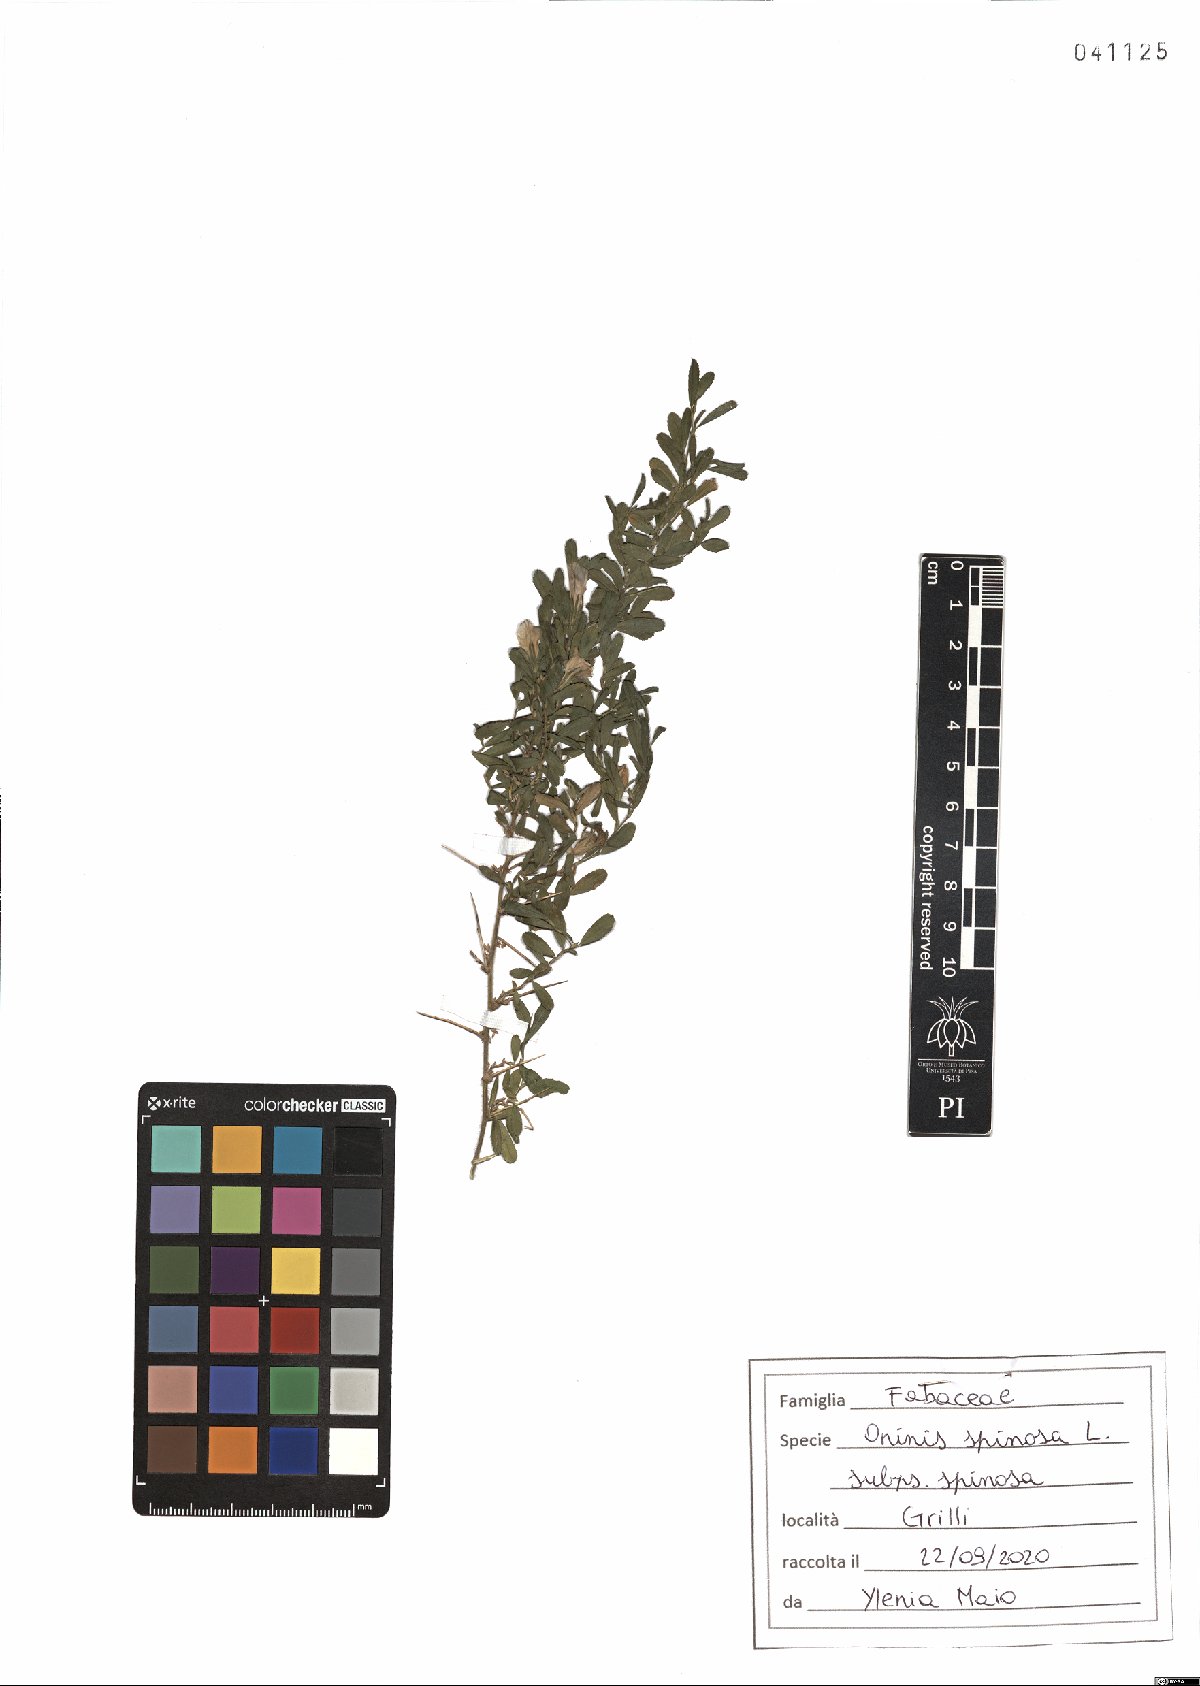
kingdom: Plantae
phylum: Tracheophyta
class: Magnoliopsida
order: Fabales
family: Fabaceae
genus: Ononis
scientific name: Ononis spinosa
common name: Spiny restharrow
